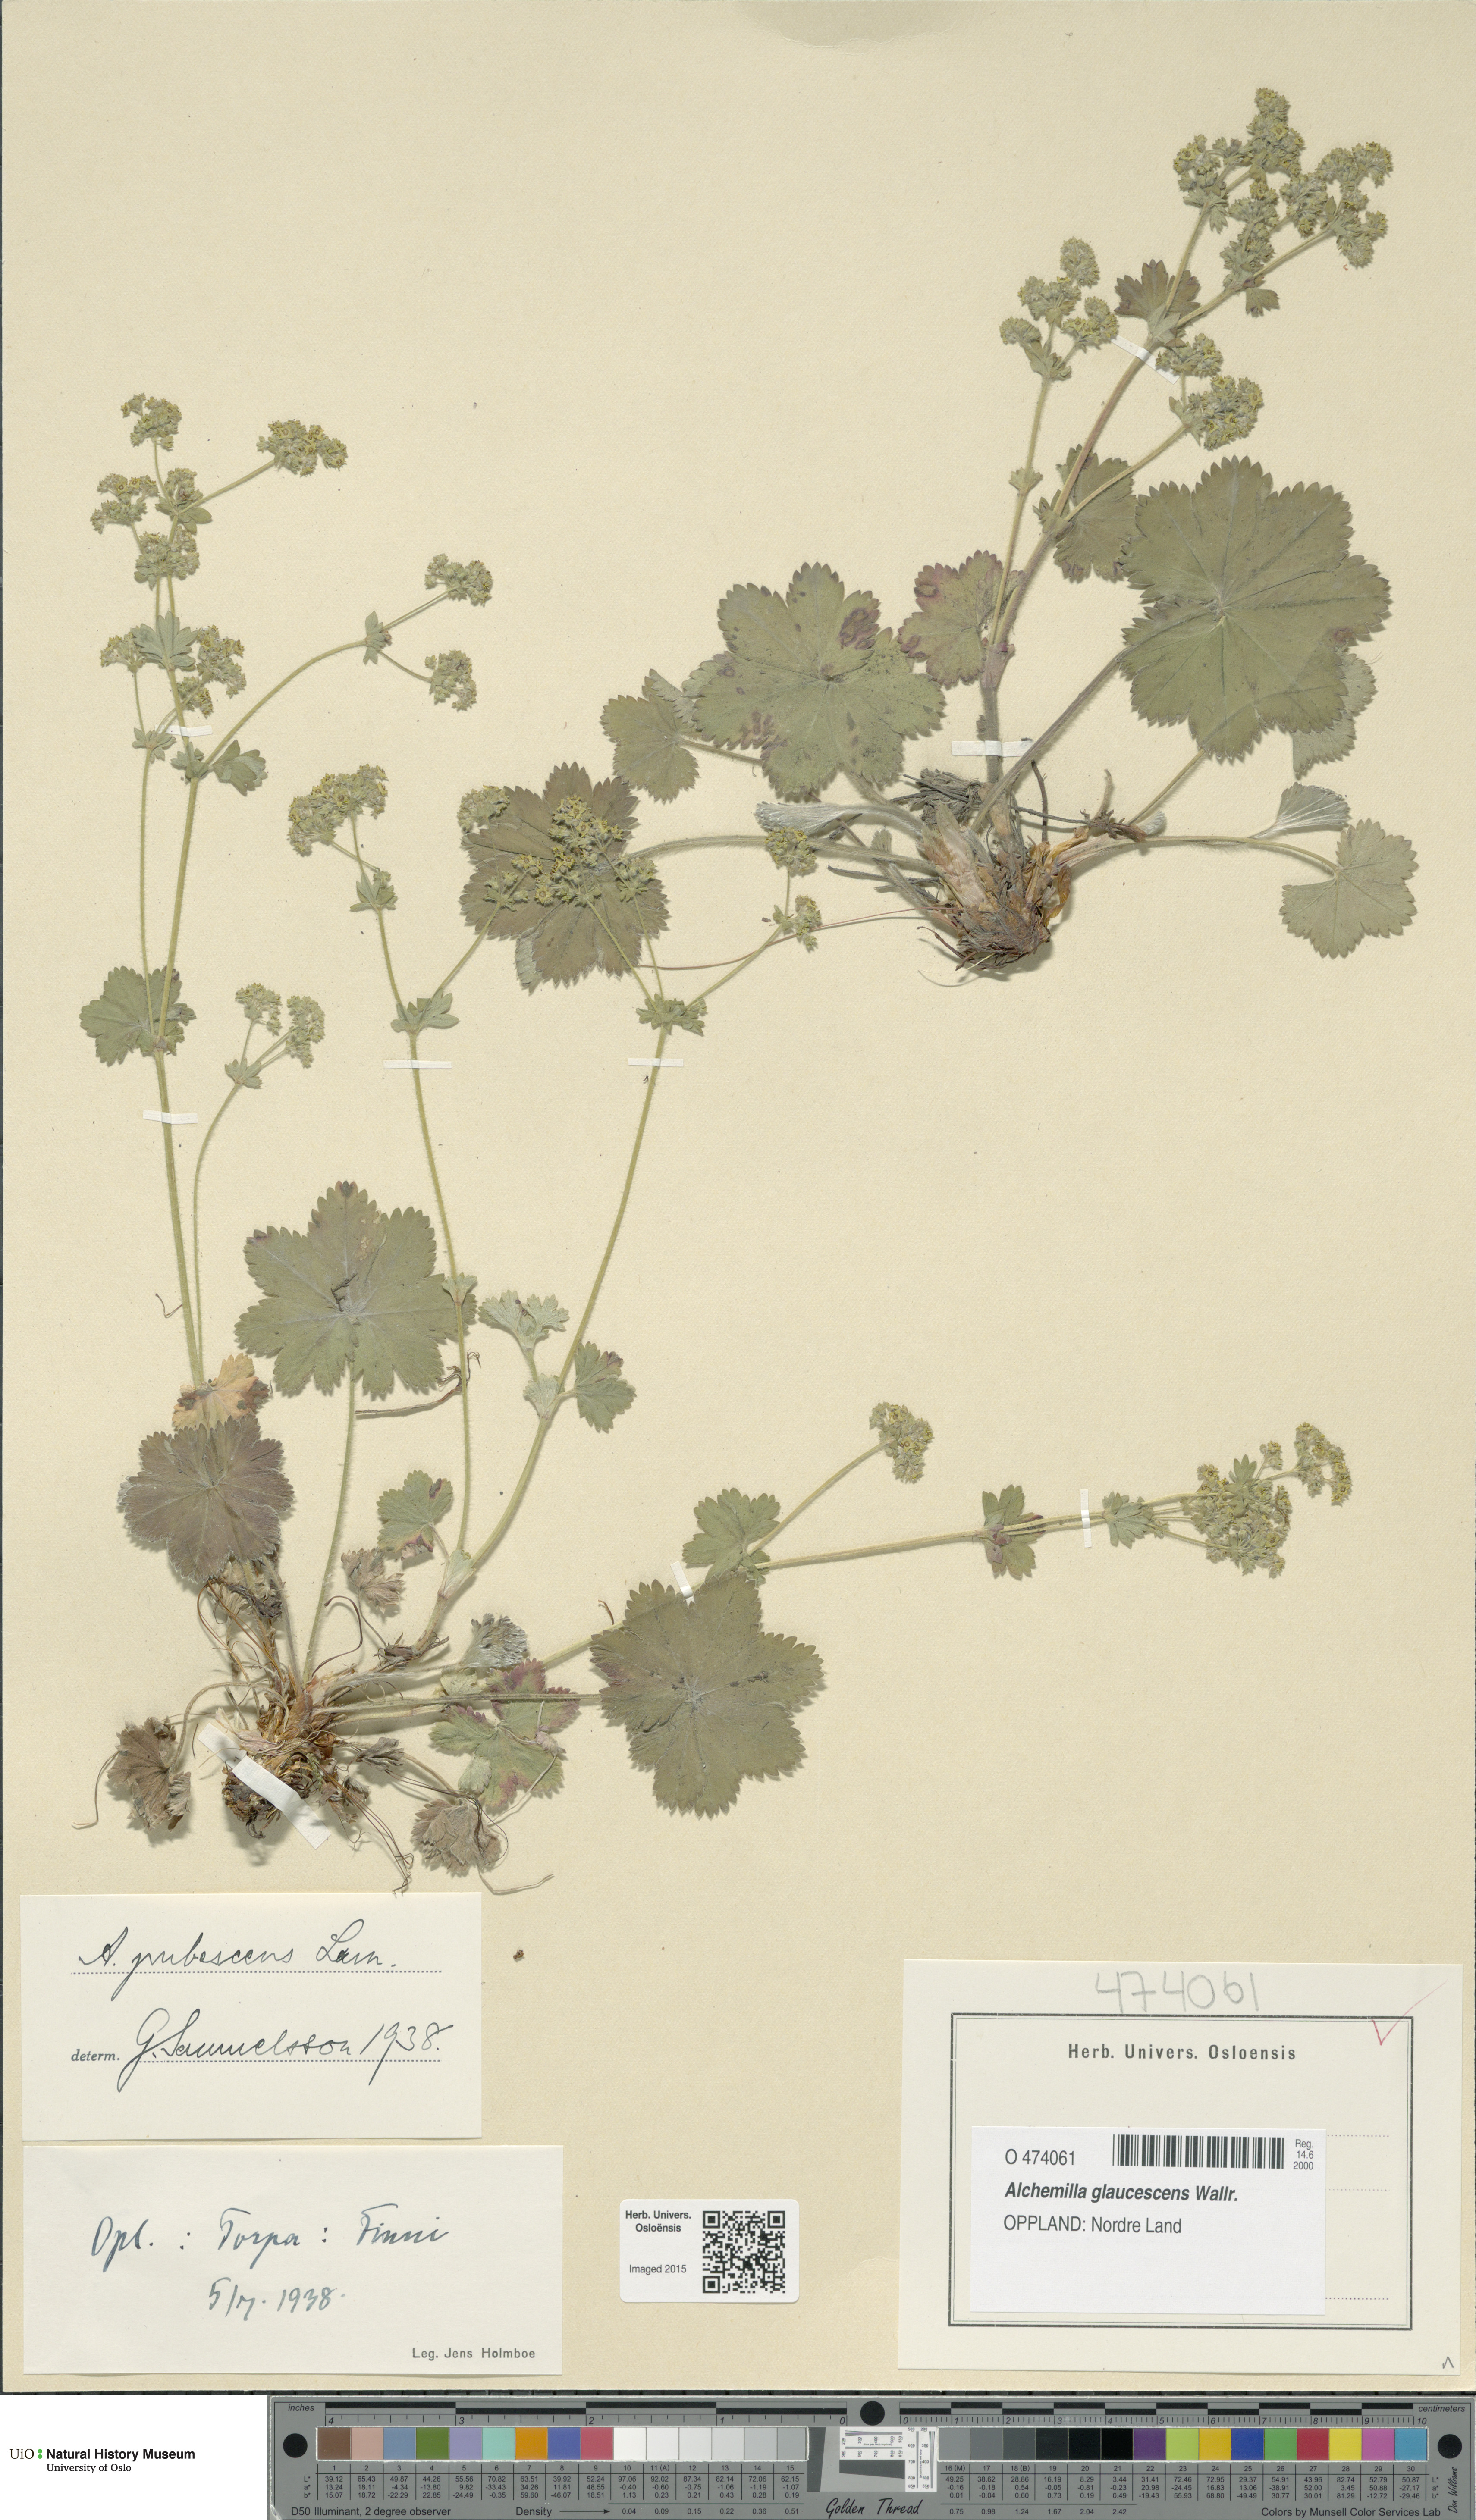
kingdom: Plantae
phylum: Tracheophyta
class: Magnoliopsida
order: Rosales
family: Rosaceae
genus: Alchemilla
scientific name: Alchemilla glaucescens
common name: Silky lady's mantle
